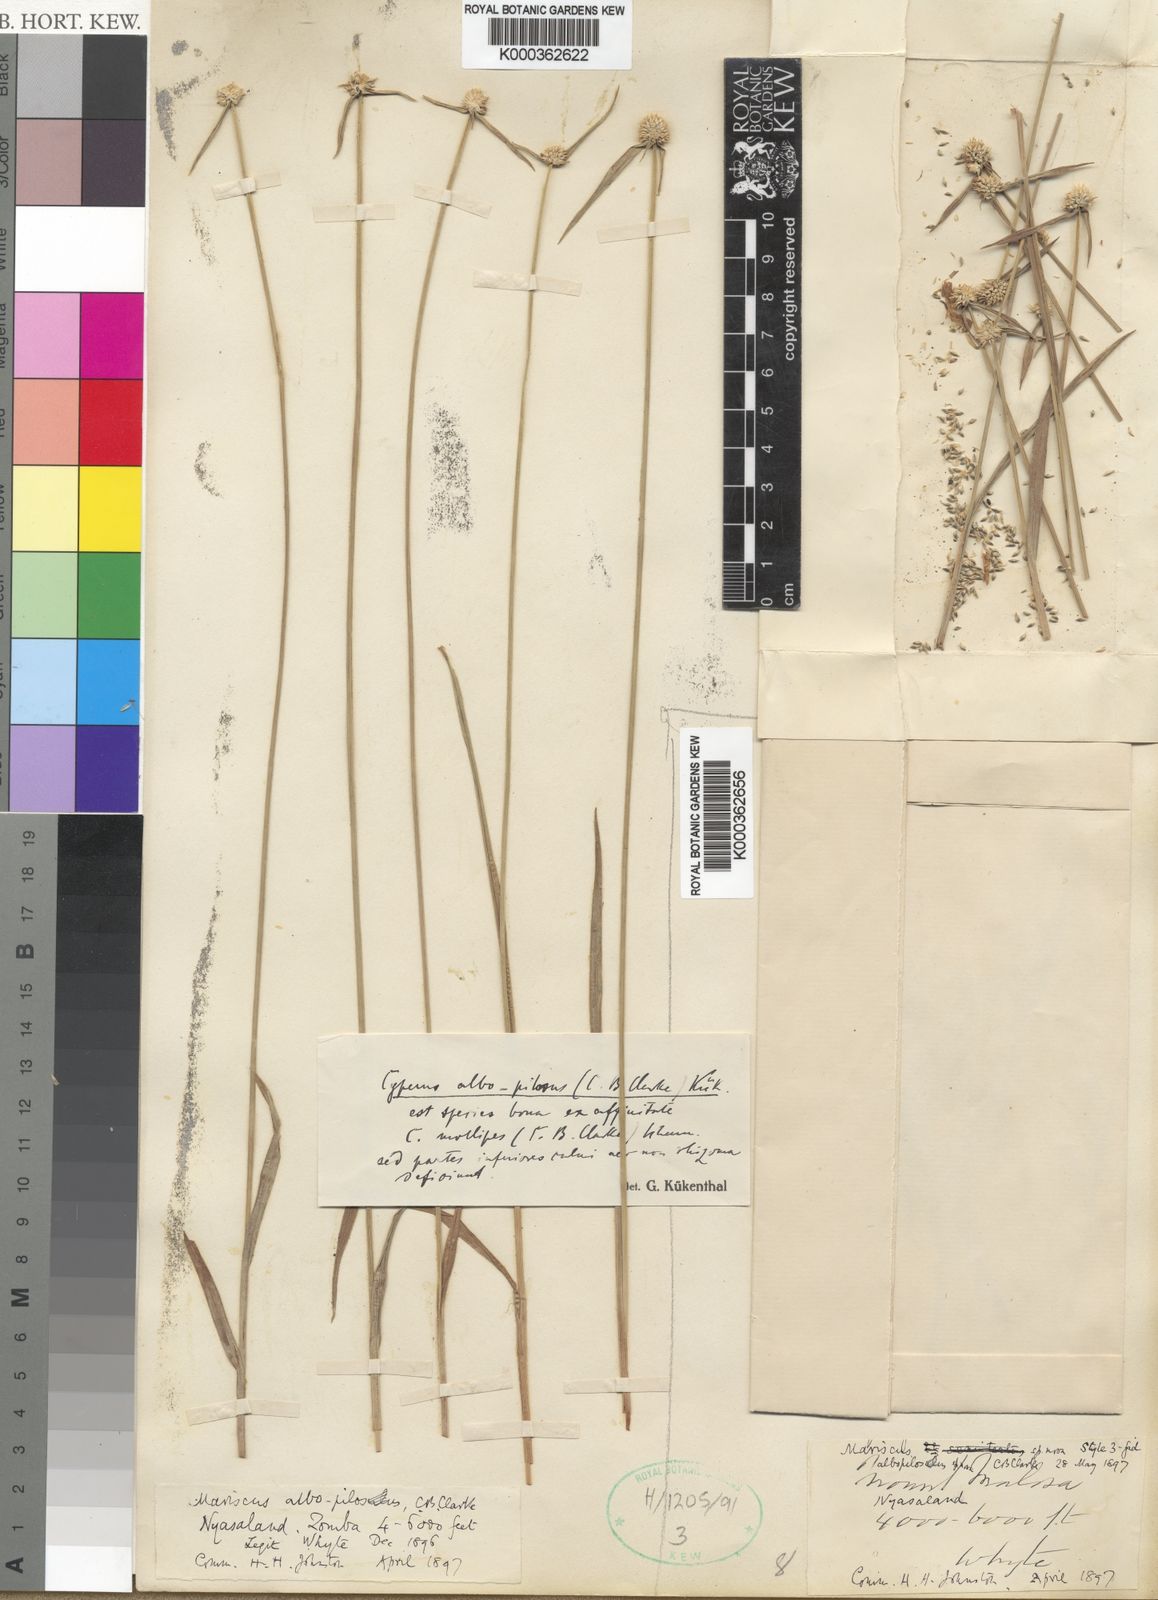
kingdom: Plantae
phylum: Tracheophyta
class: Liliopsida
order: Poales
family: Cyperaceae
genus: Cyperus
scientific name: Cyperus
